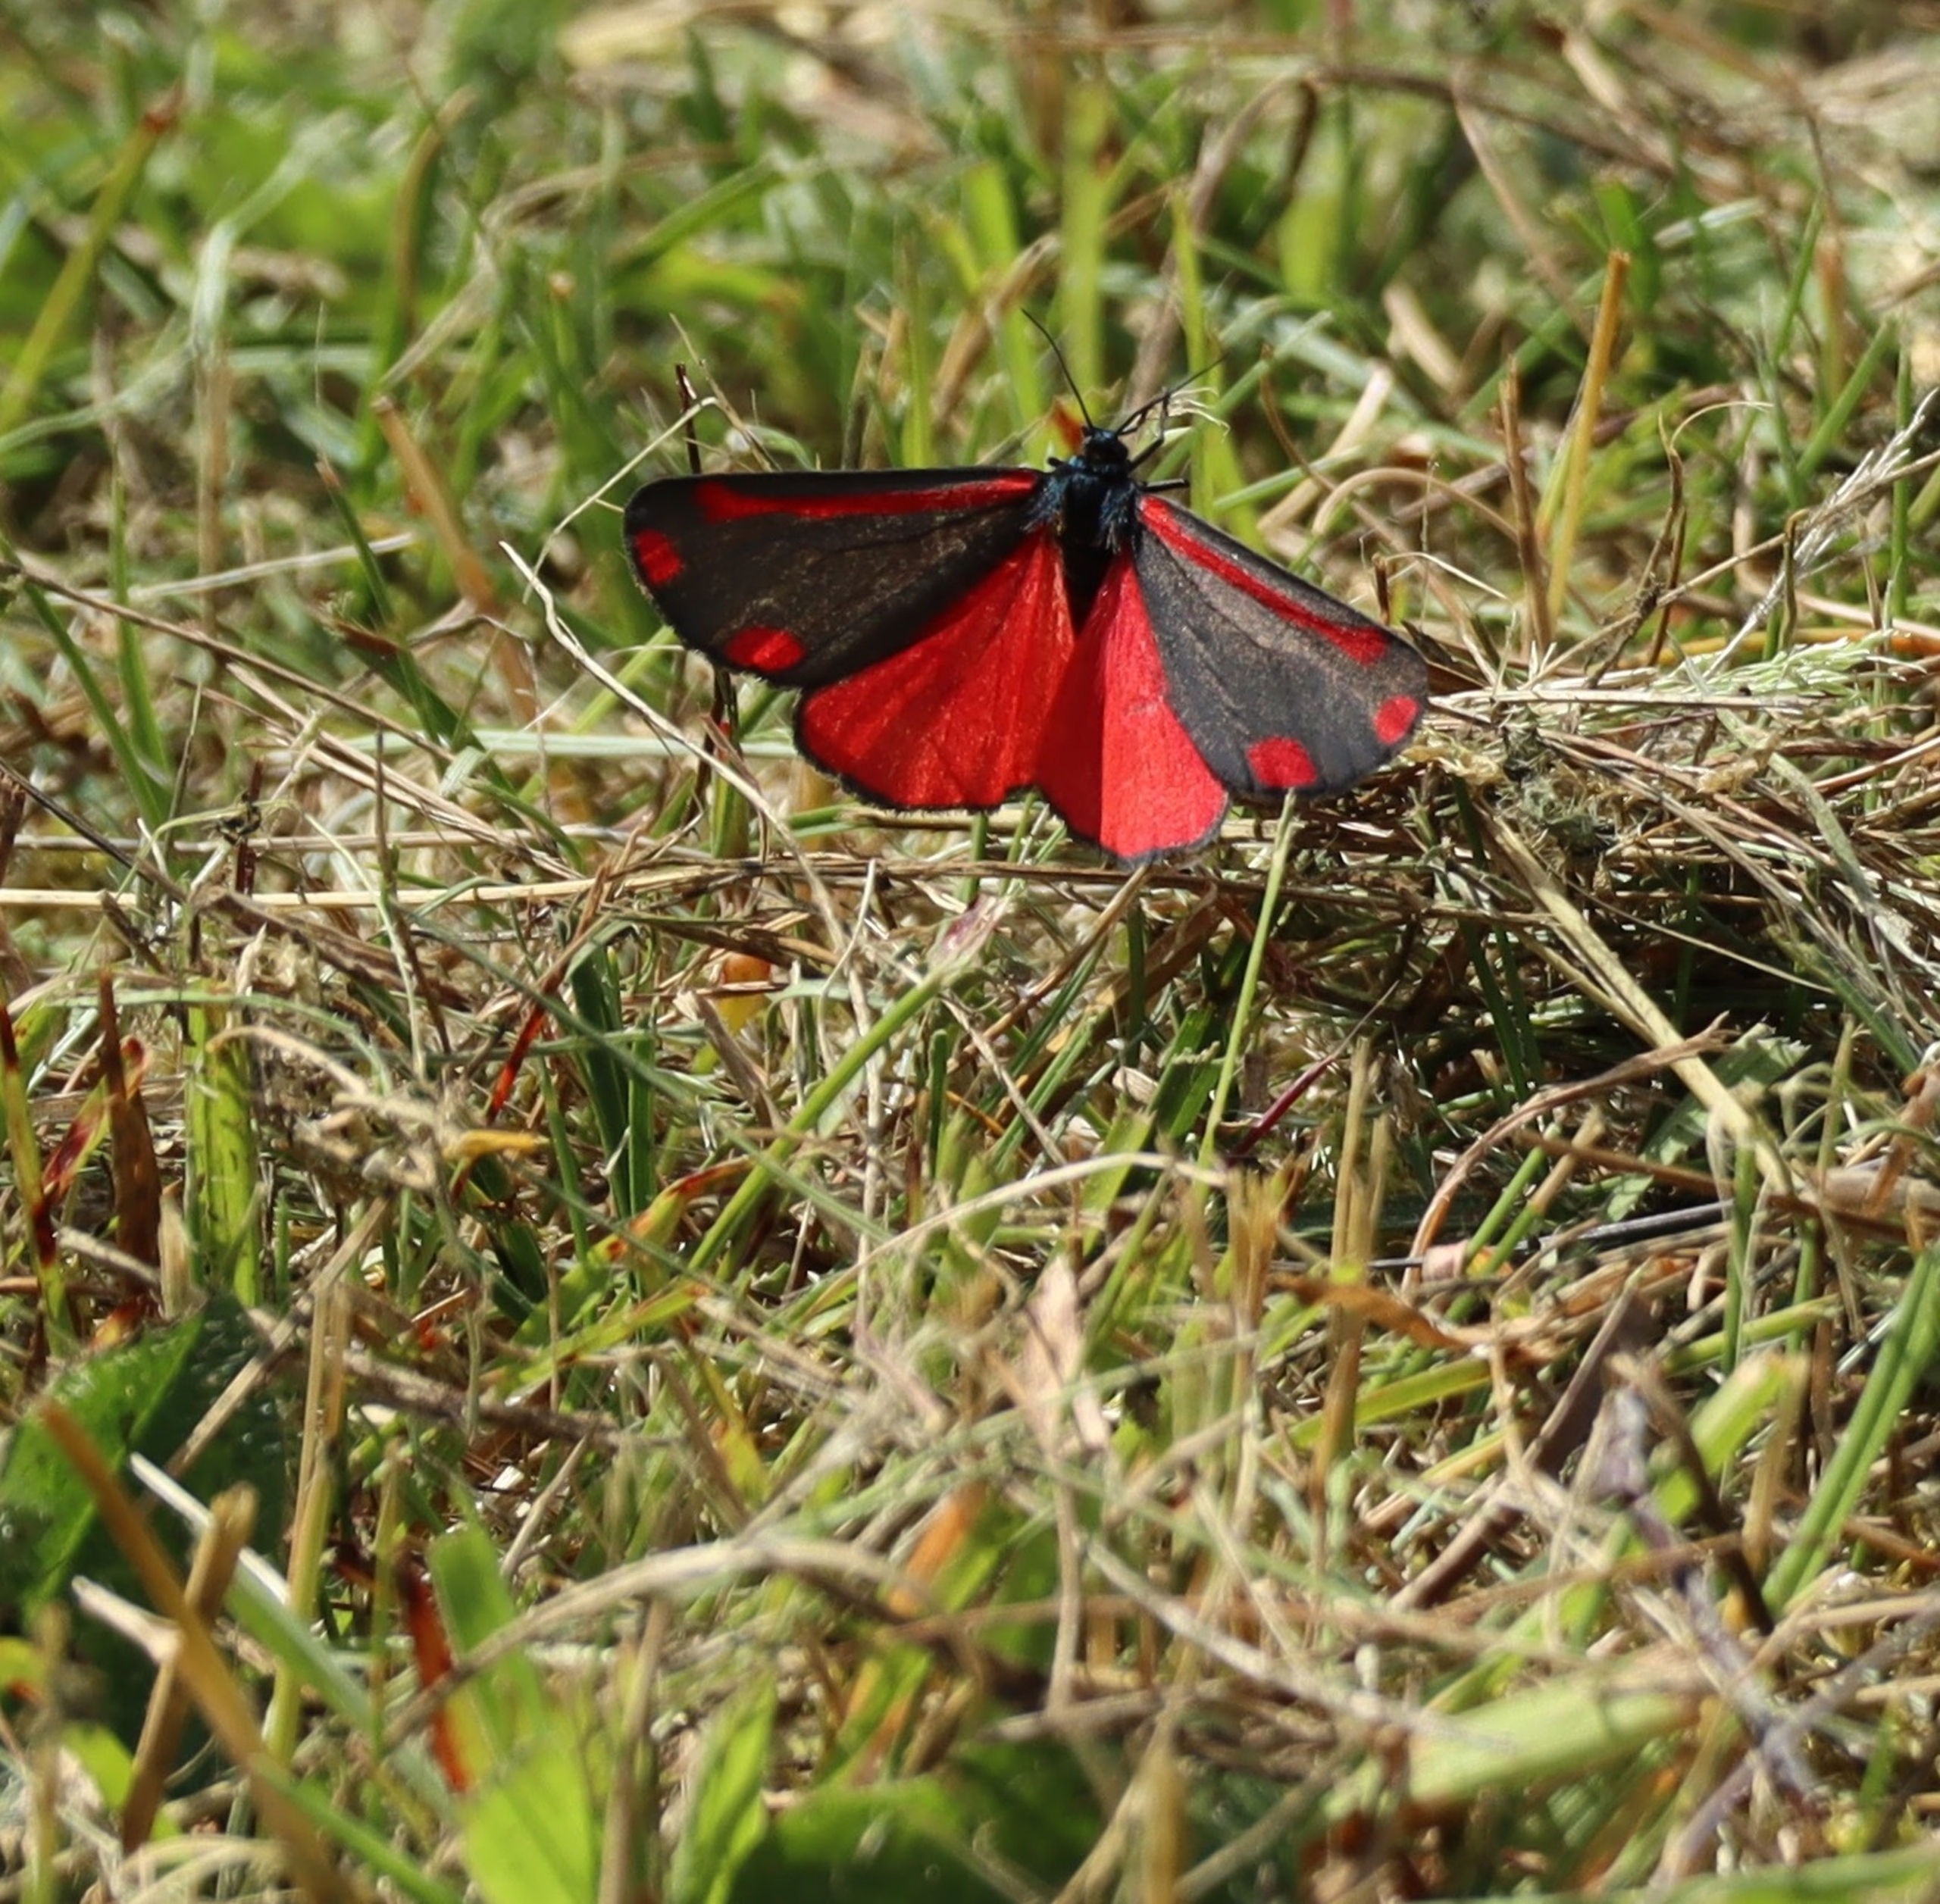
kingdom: Animalia
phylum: Arthropoda
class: Insecta
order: Lepidoptera
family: Erebidae
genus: Tyria
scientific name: Tyria jacobaeae
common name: Blodplet
